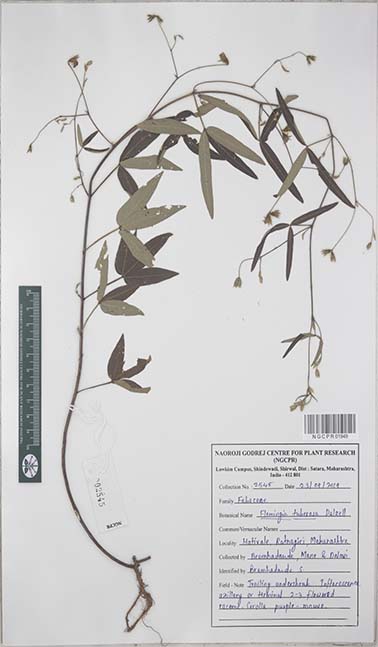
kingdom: Plantae
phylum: Tracheophyta
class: Magnoliopsida
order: Fabales
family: Fabaceae
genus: Flemingia
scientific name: Flemingia tuberosa
